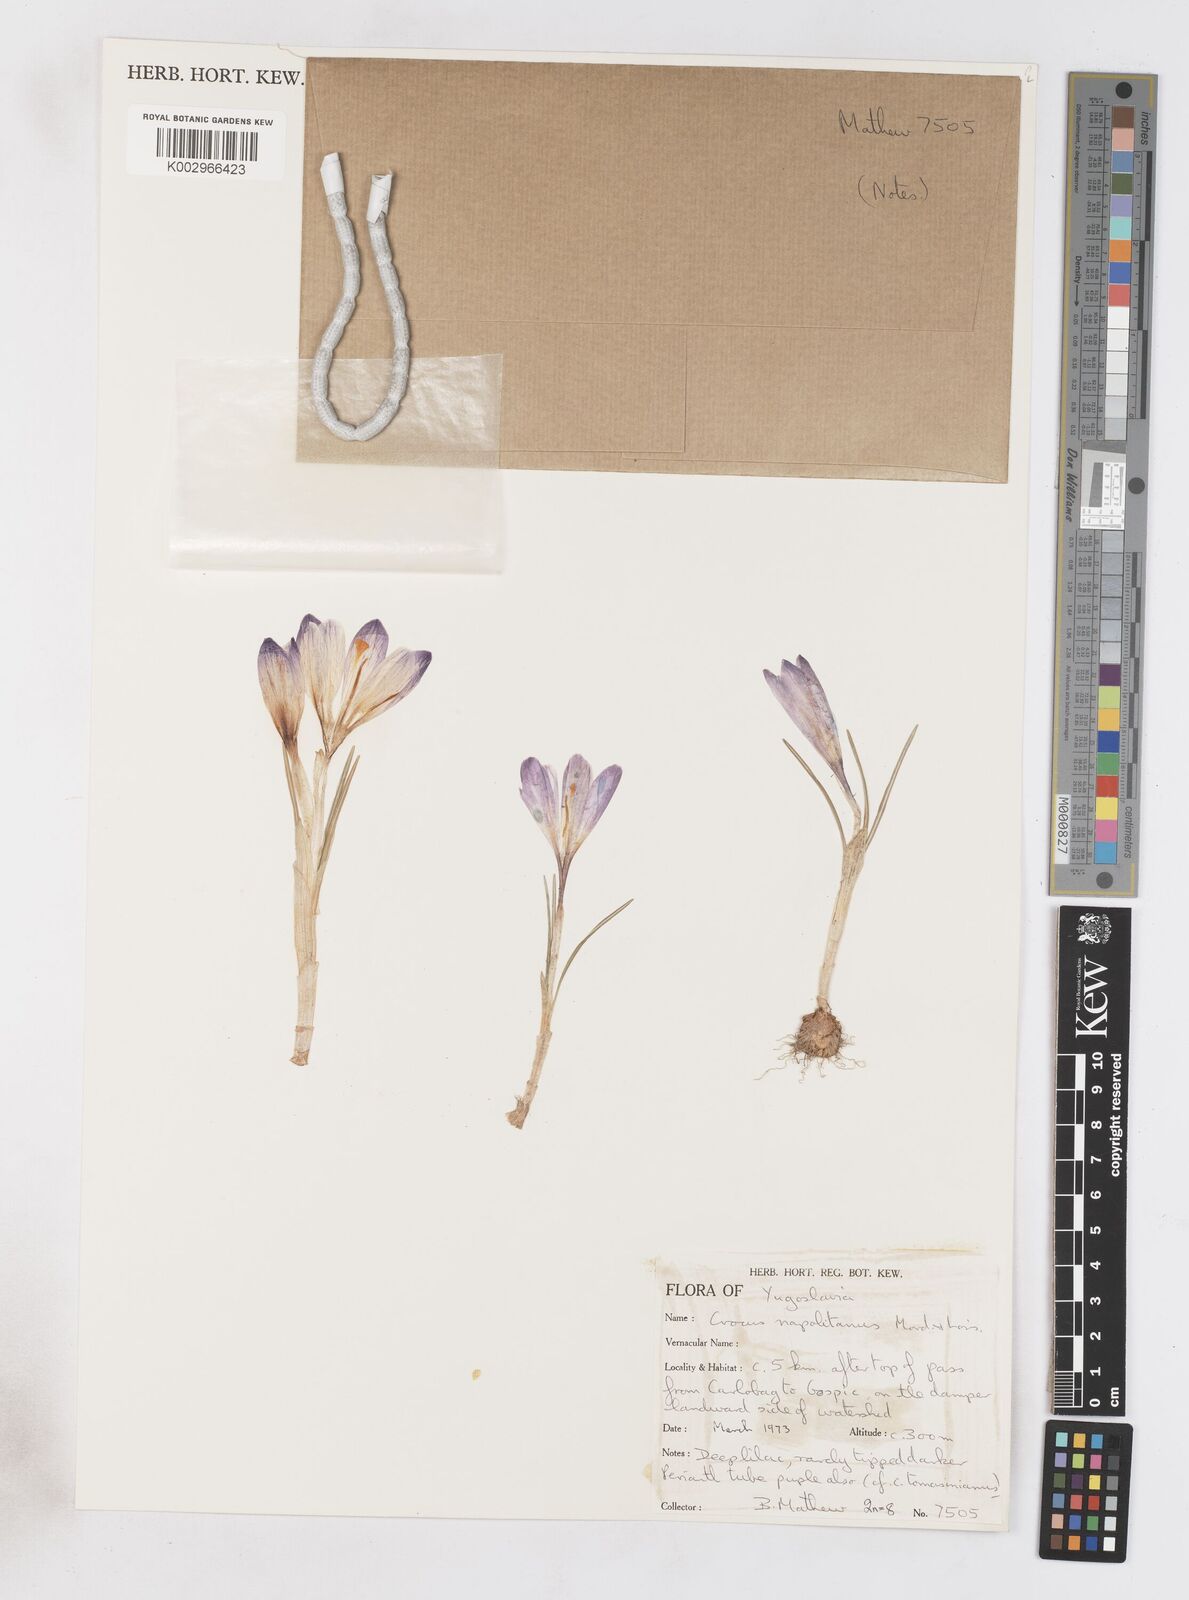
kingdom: Plantae
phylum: Tracheophyta
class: Liliopsida
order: Asparagales
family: Iridaceae
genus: Crocus
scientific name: Crocus vernus
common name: Spring crocus
